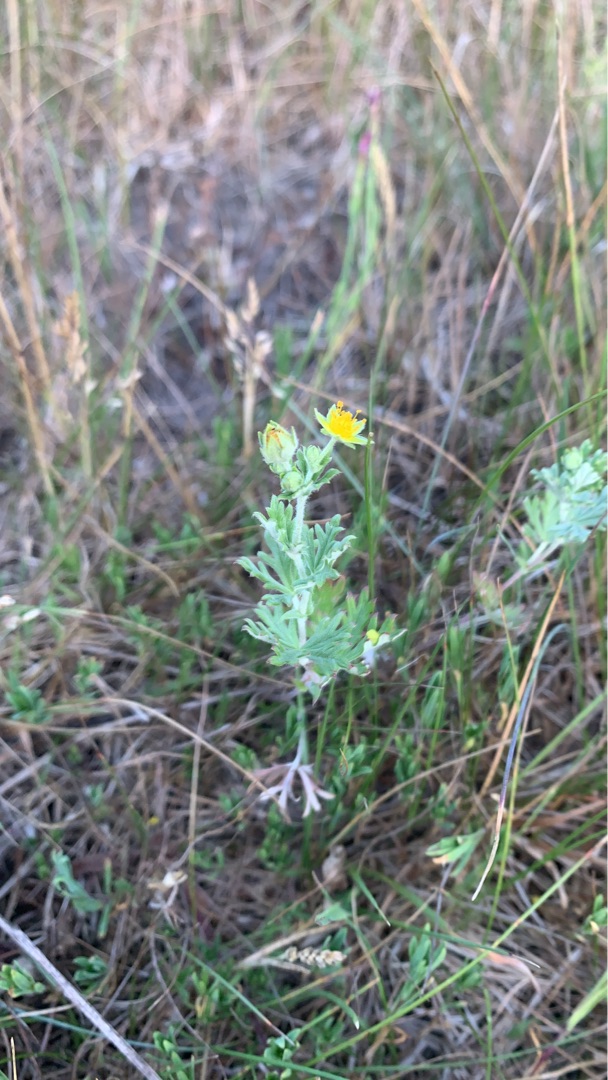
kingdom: Plantae
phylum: Tracheophyta
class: Magnoliopsida
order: Rosales
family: Rosaceae
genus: Potentilla
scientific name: Potentilla neglecta
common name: Håret sølv-potentil
